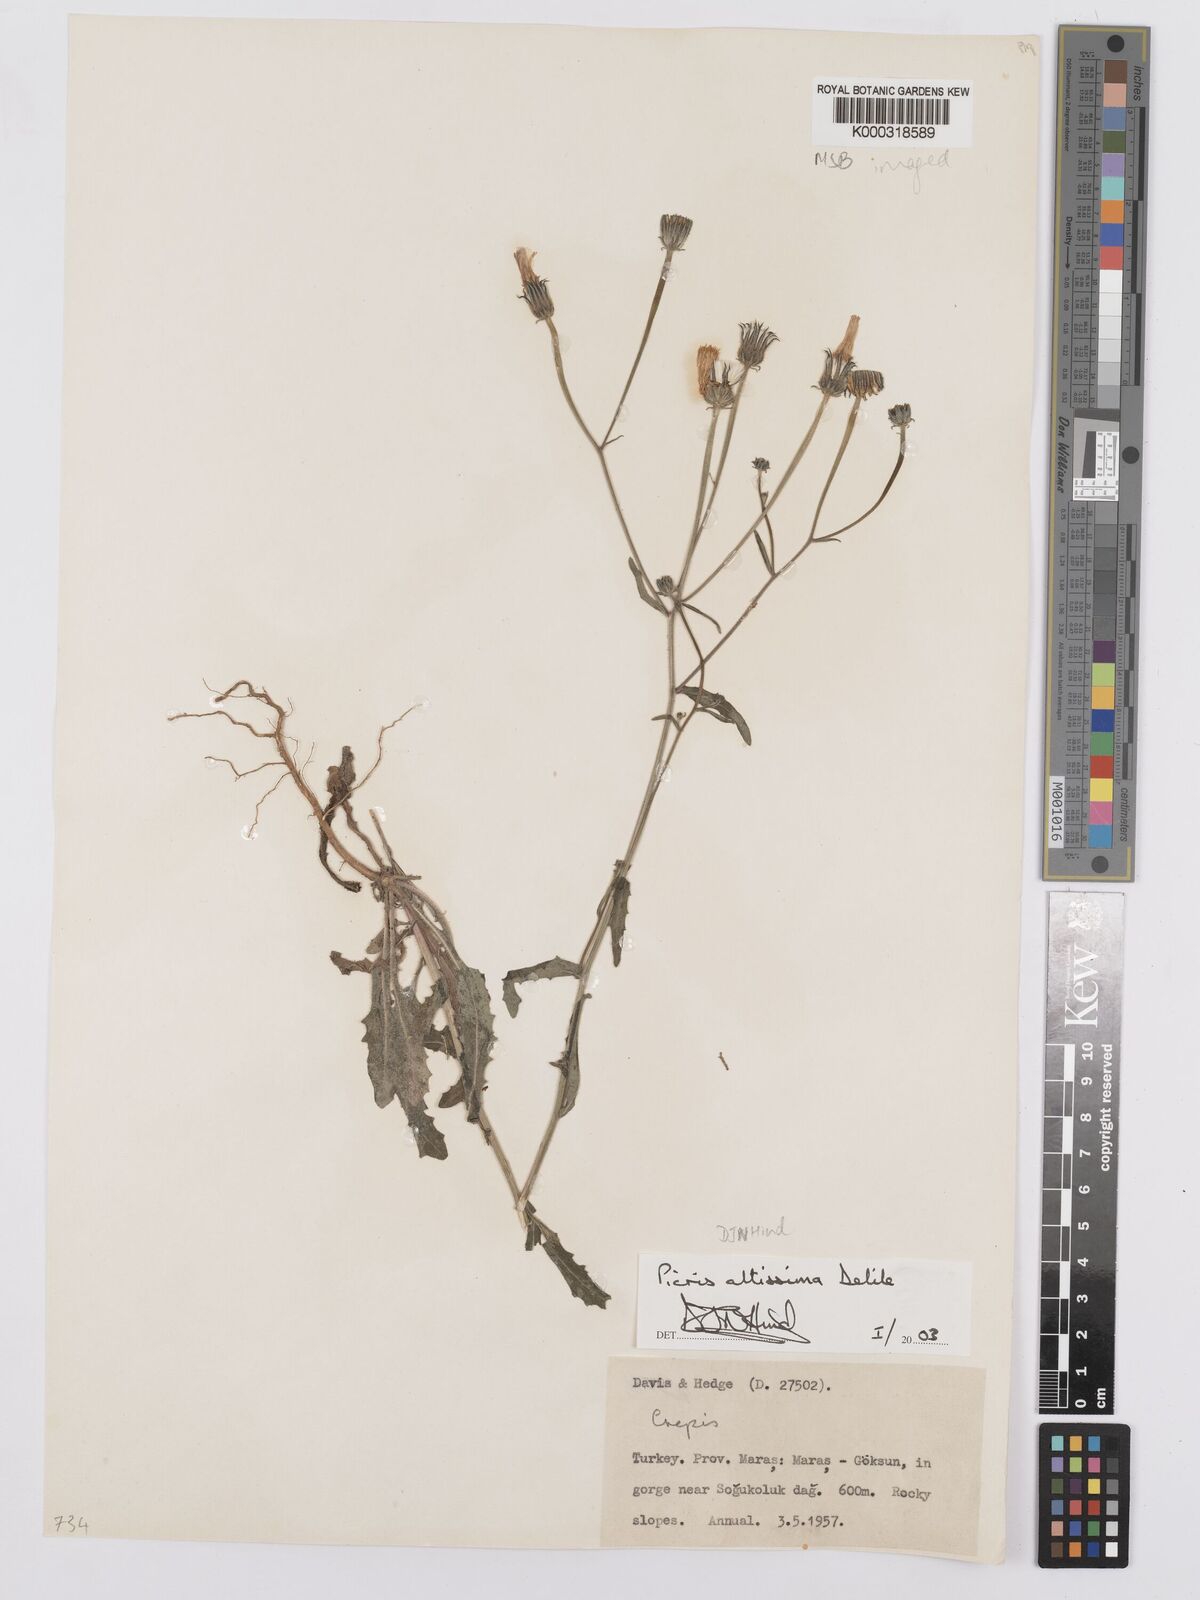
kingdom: Plantae
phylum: Tracheophyta
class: Magnoliopsida
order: Asterales
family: Asteraceae
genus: Picris
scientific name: Picris rhagadioloides
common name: Oxtongue
